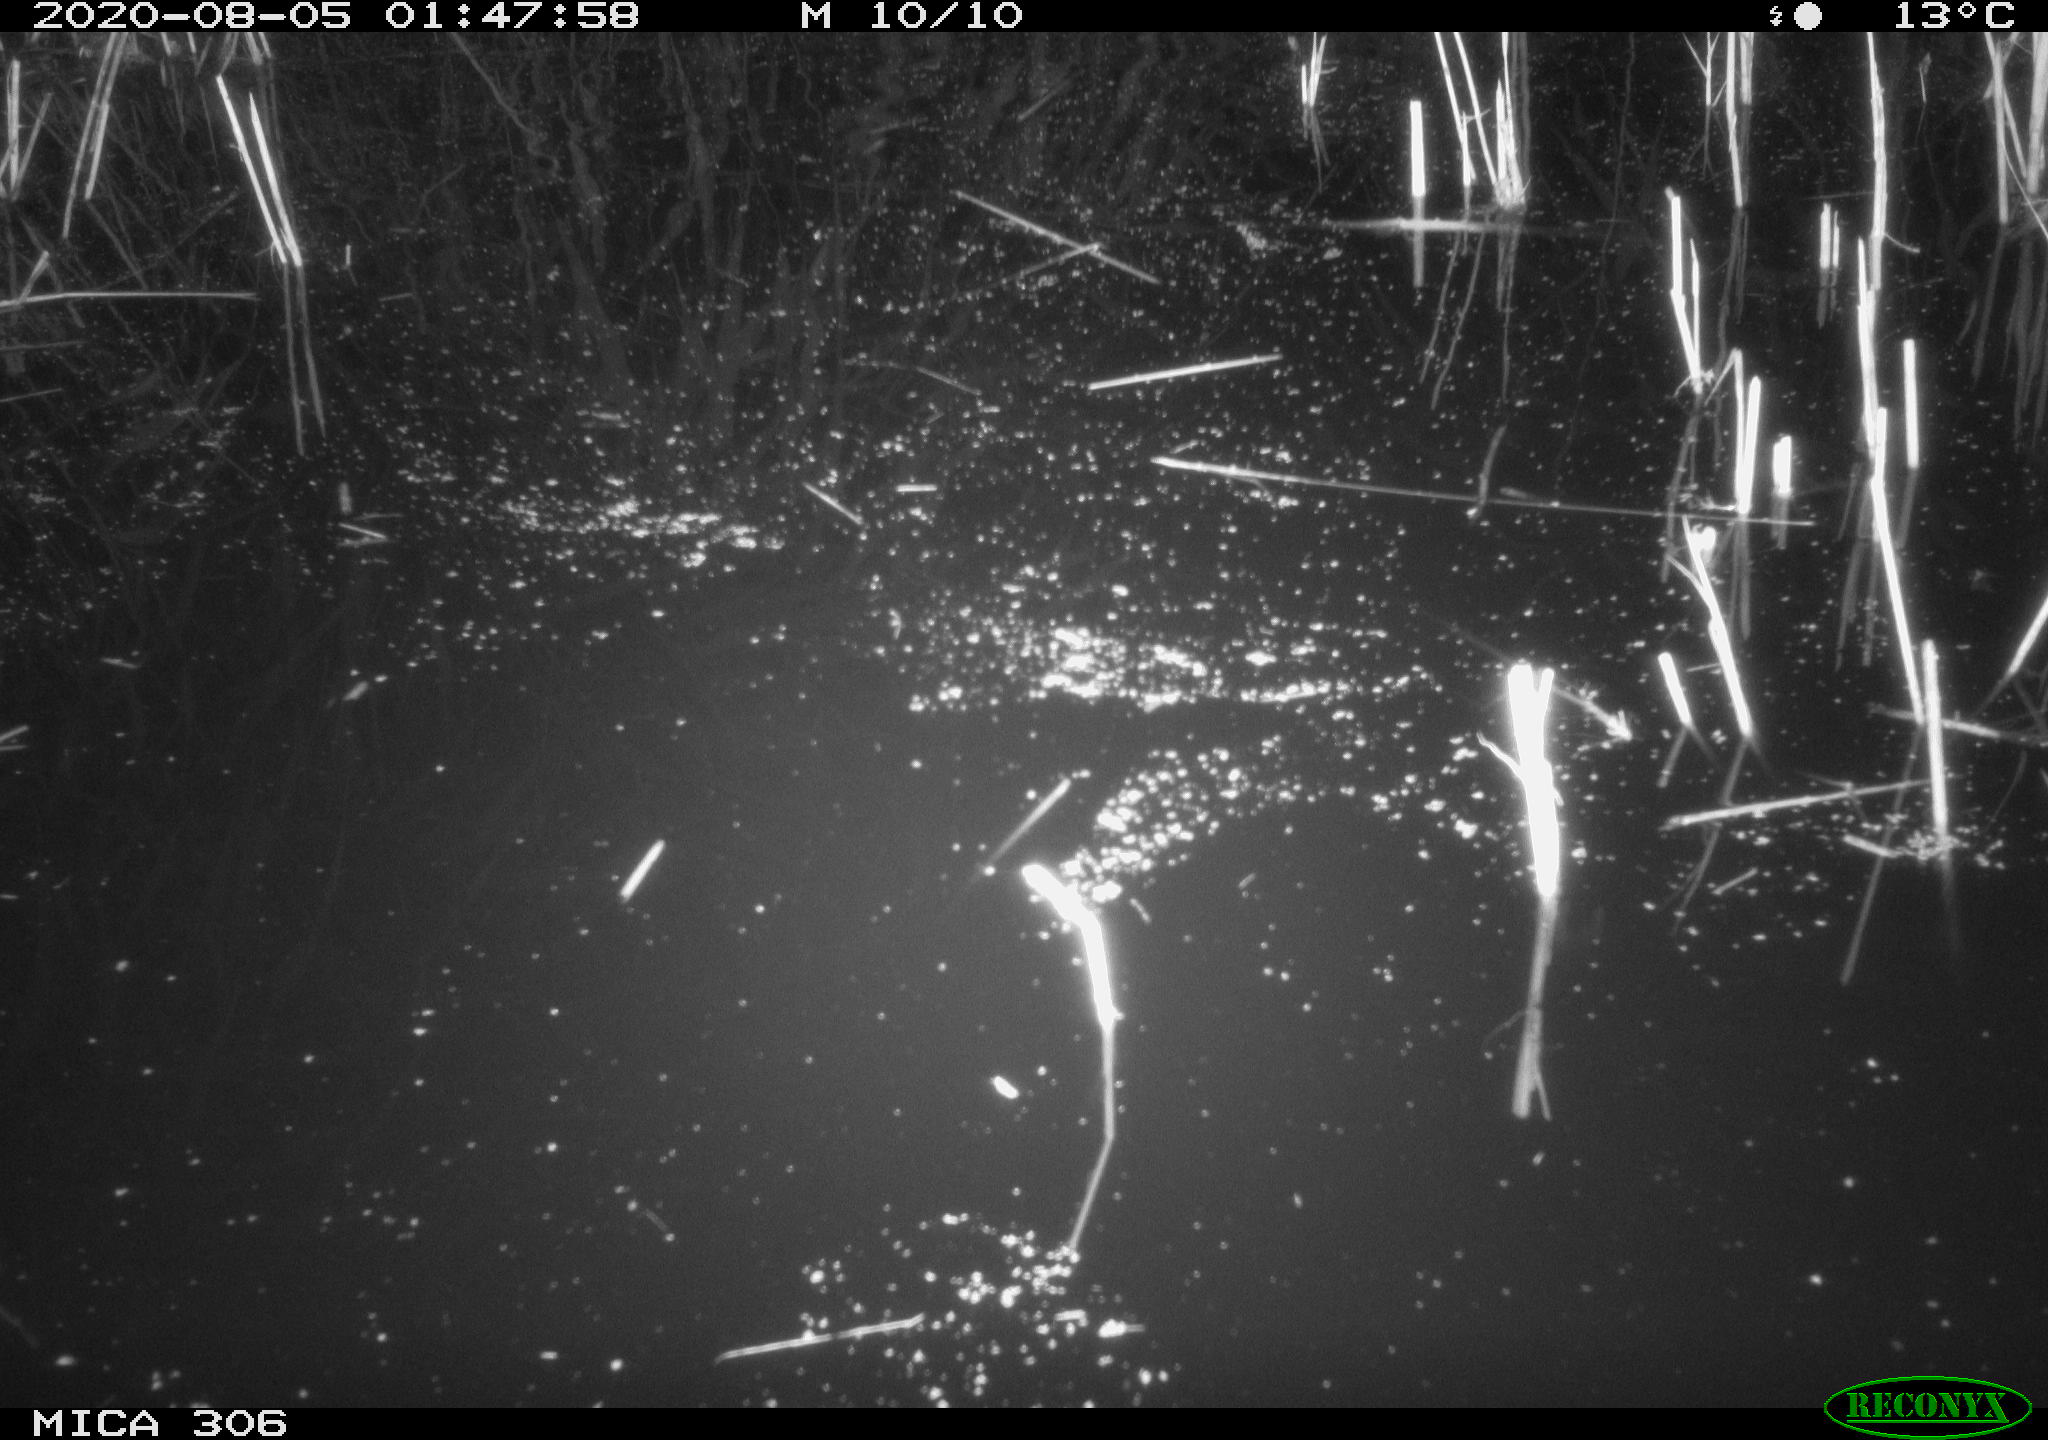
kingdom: Animalia
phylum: Chordata
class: Mammalia
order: Rodentia
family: Muridae
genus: Rattus
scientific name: Rattus norvegicus
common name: Brown rat
